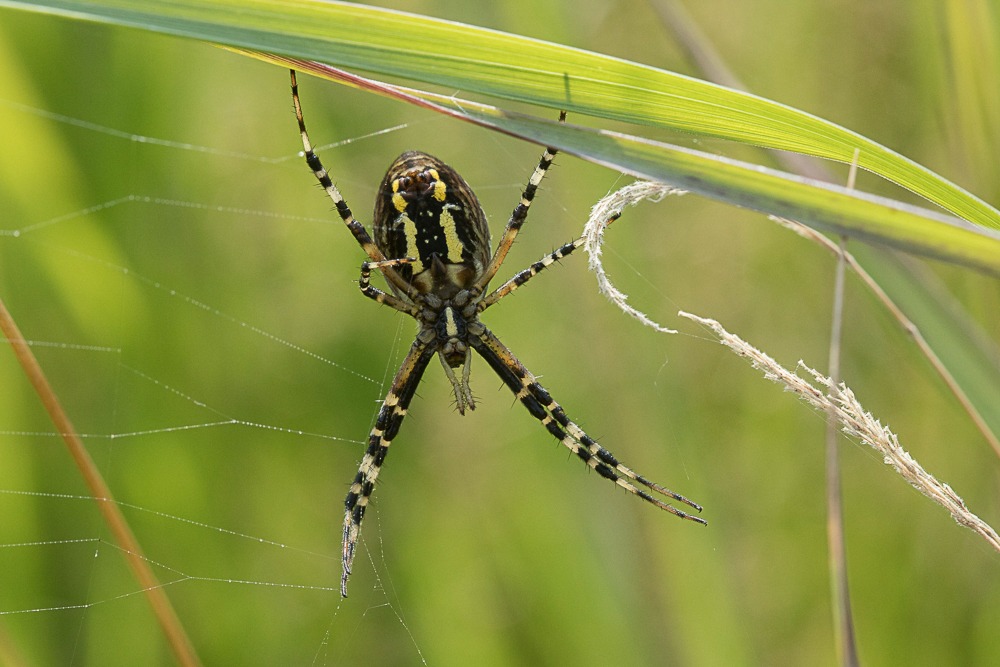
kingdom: Animalia
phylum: Arthropoda
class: Arachnida
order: Araneae
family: Araneidae
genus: Argiope
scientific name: Argiope bruennichi
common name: Hvepseedderkop
